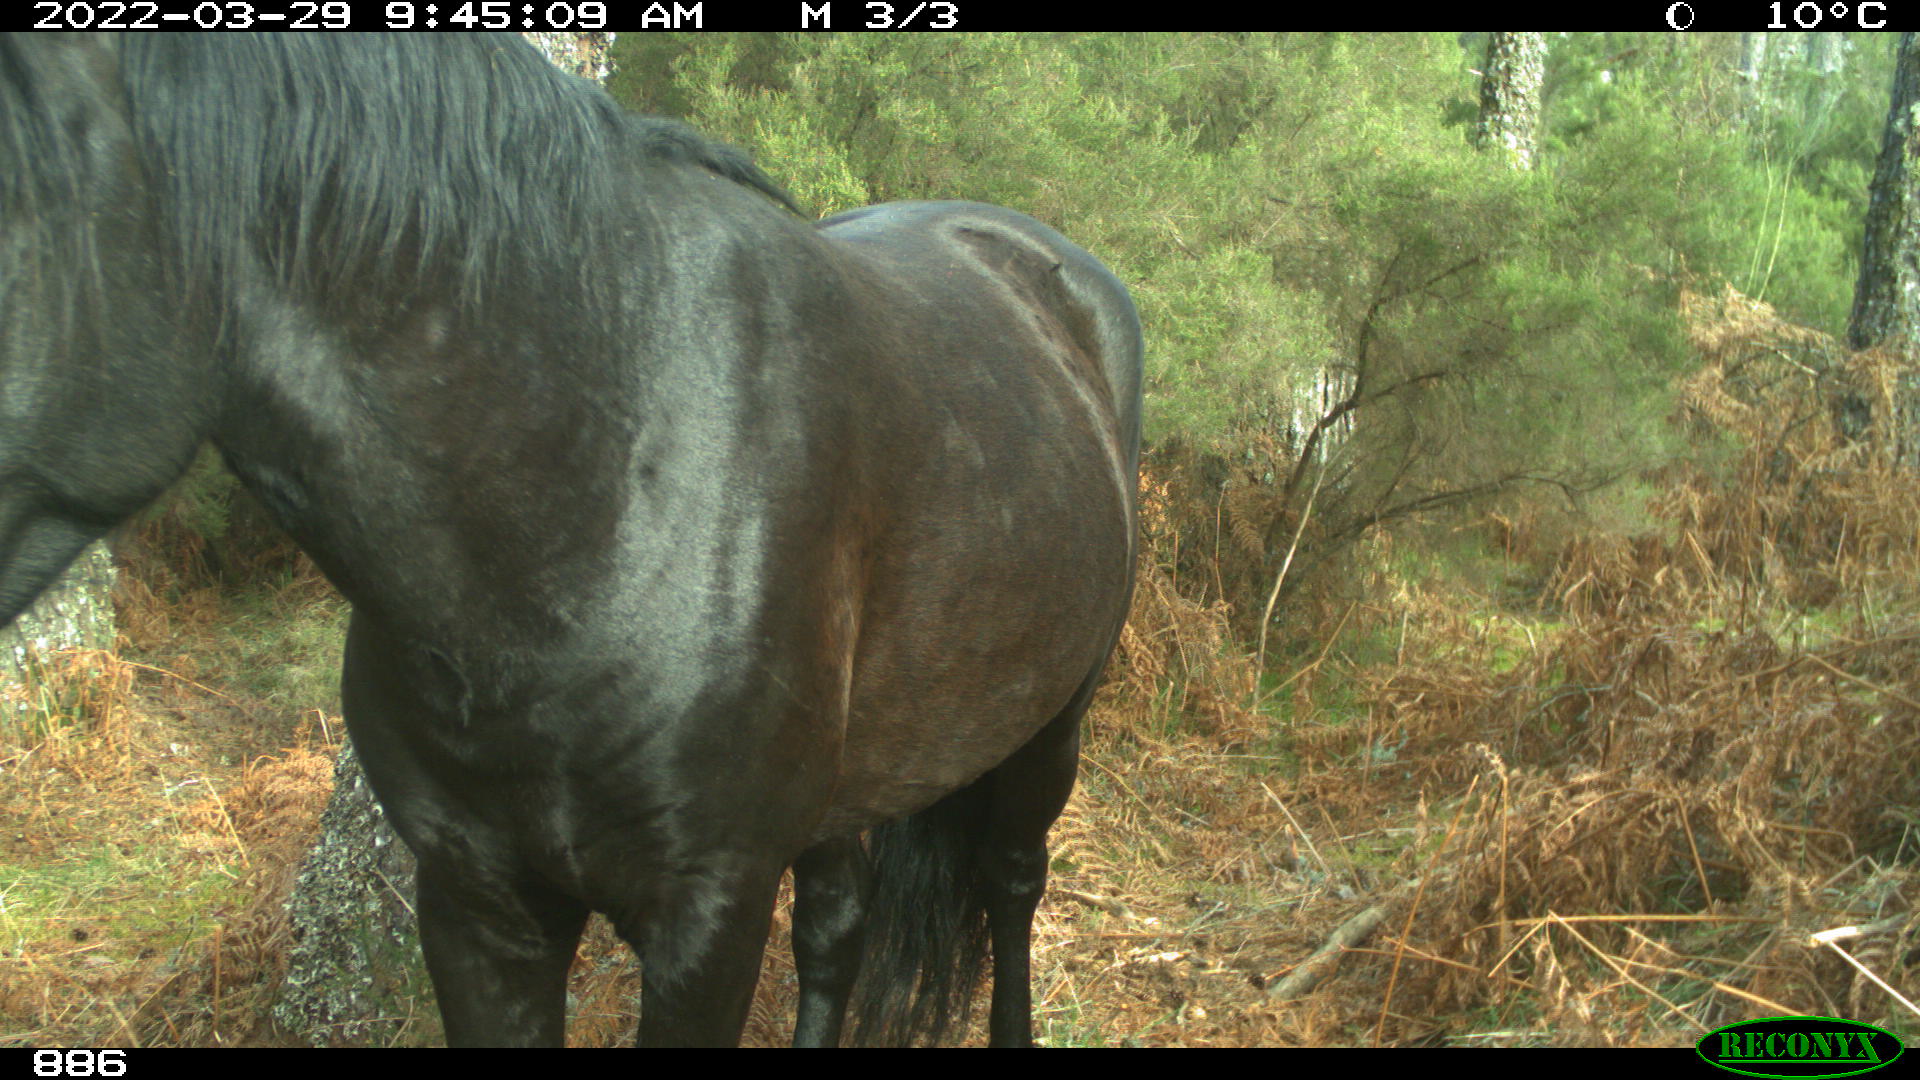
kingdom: Animalia
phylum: Chordata
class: Mammalia
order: Perissodactyla
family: Equidae
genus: Equus
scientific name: Equus caballus
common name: Horse
